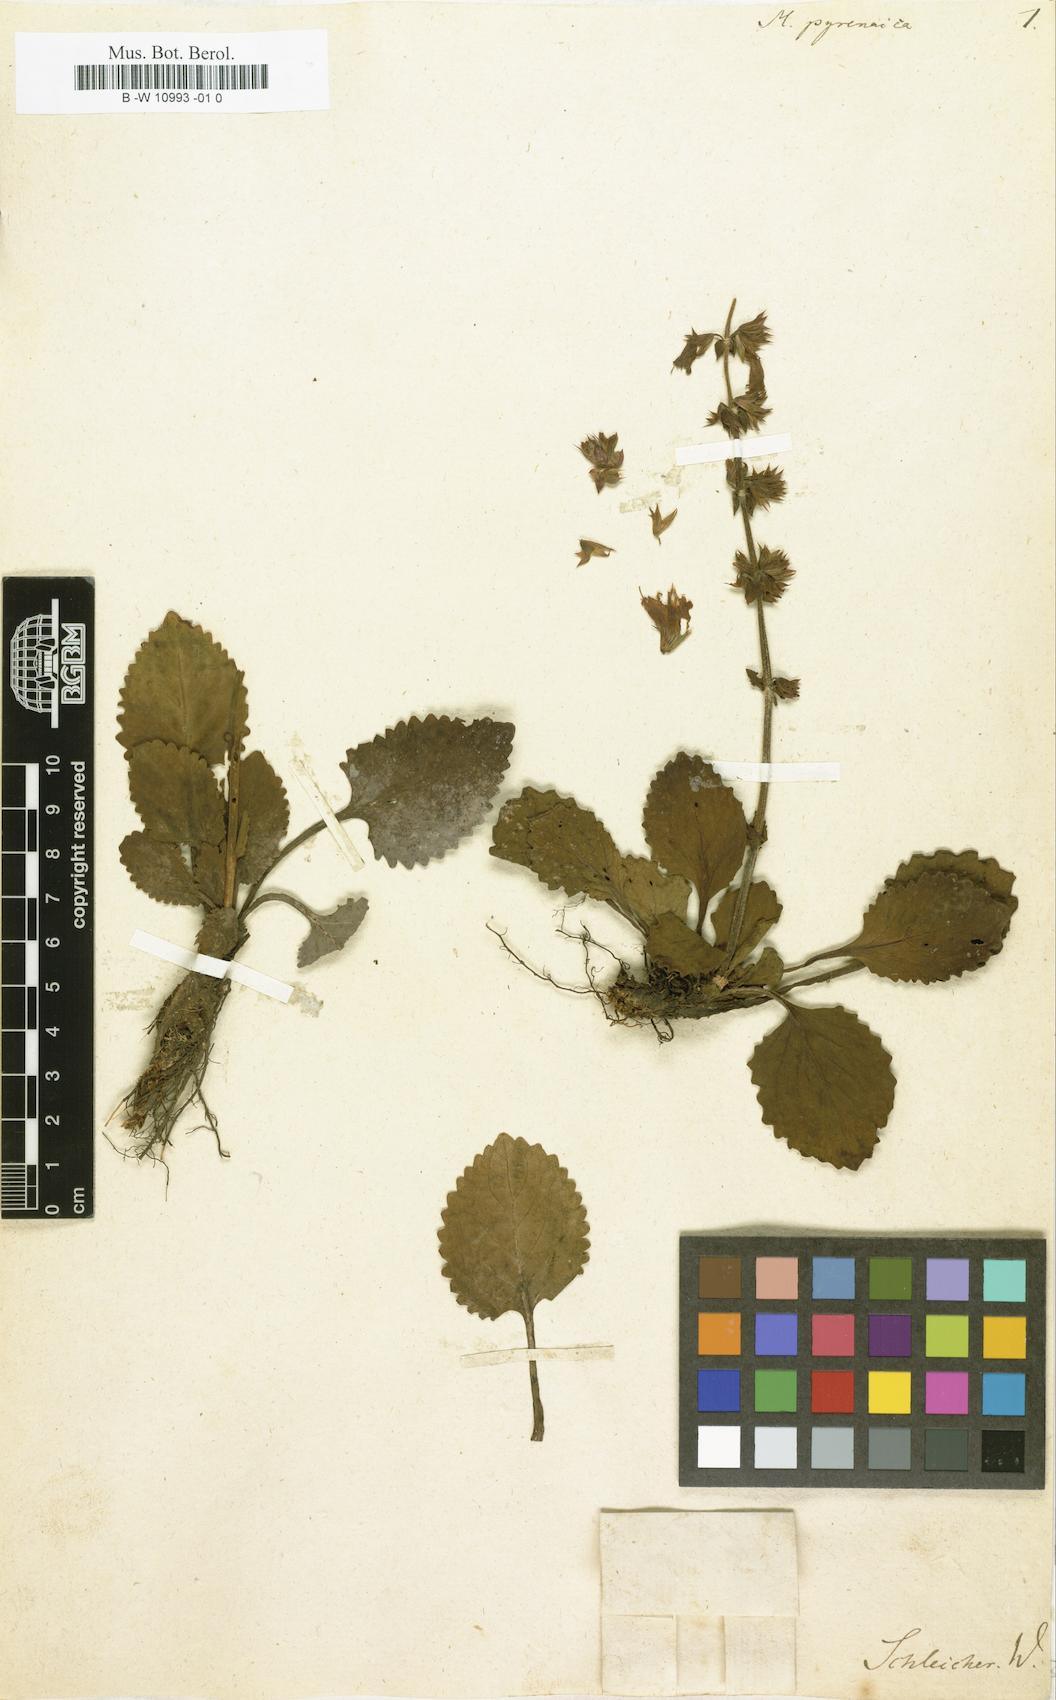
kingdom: Plantae
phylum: Tracheophyta
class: Magnoliopsida
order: Lamiales
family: Lamiaceae
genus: Horminum
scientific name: Horminum pyrenaicum
